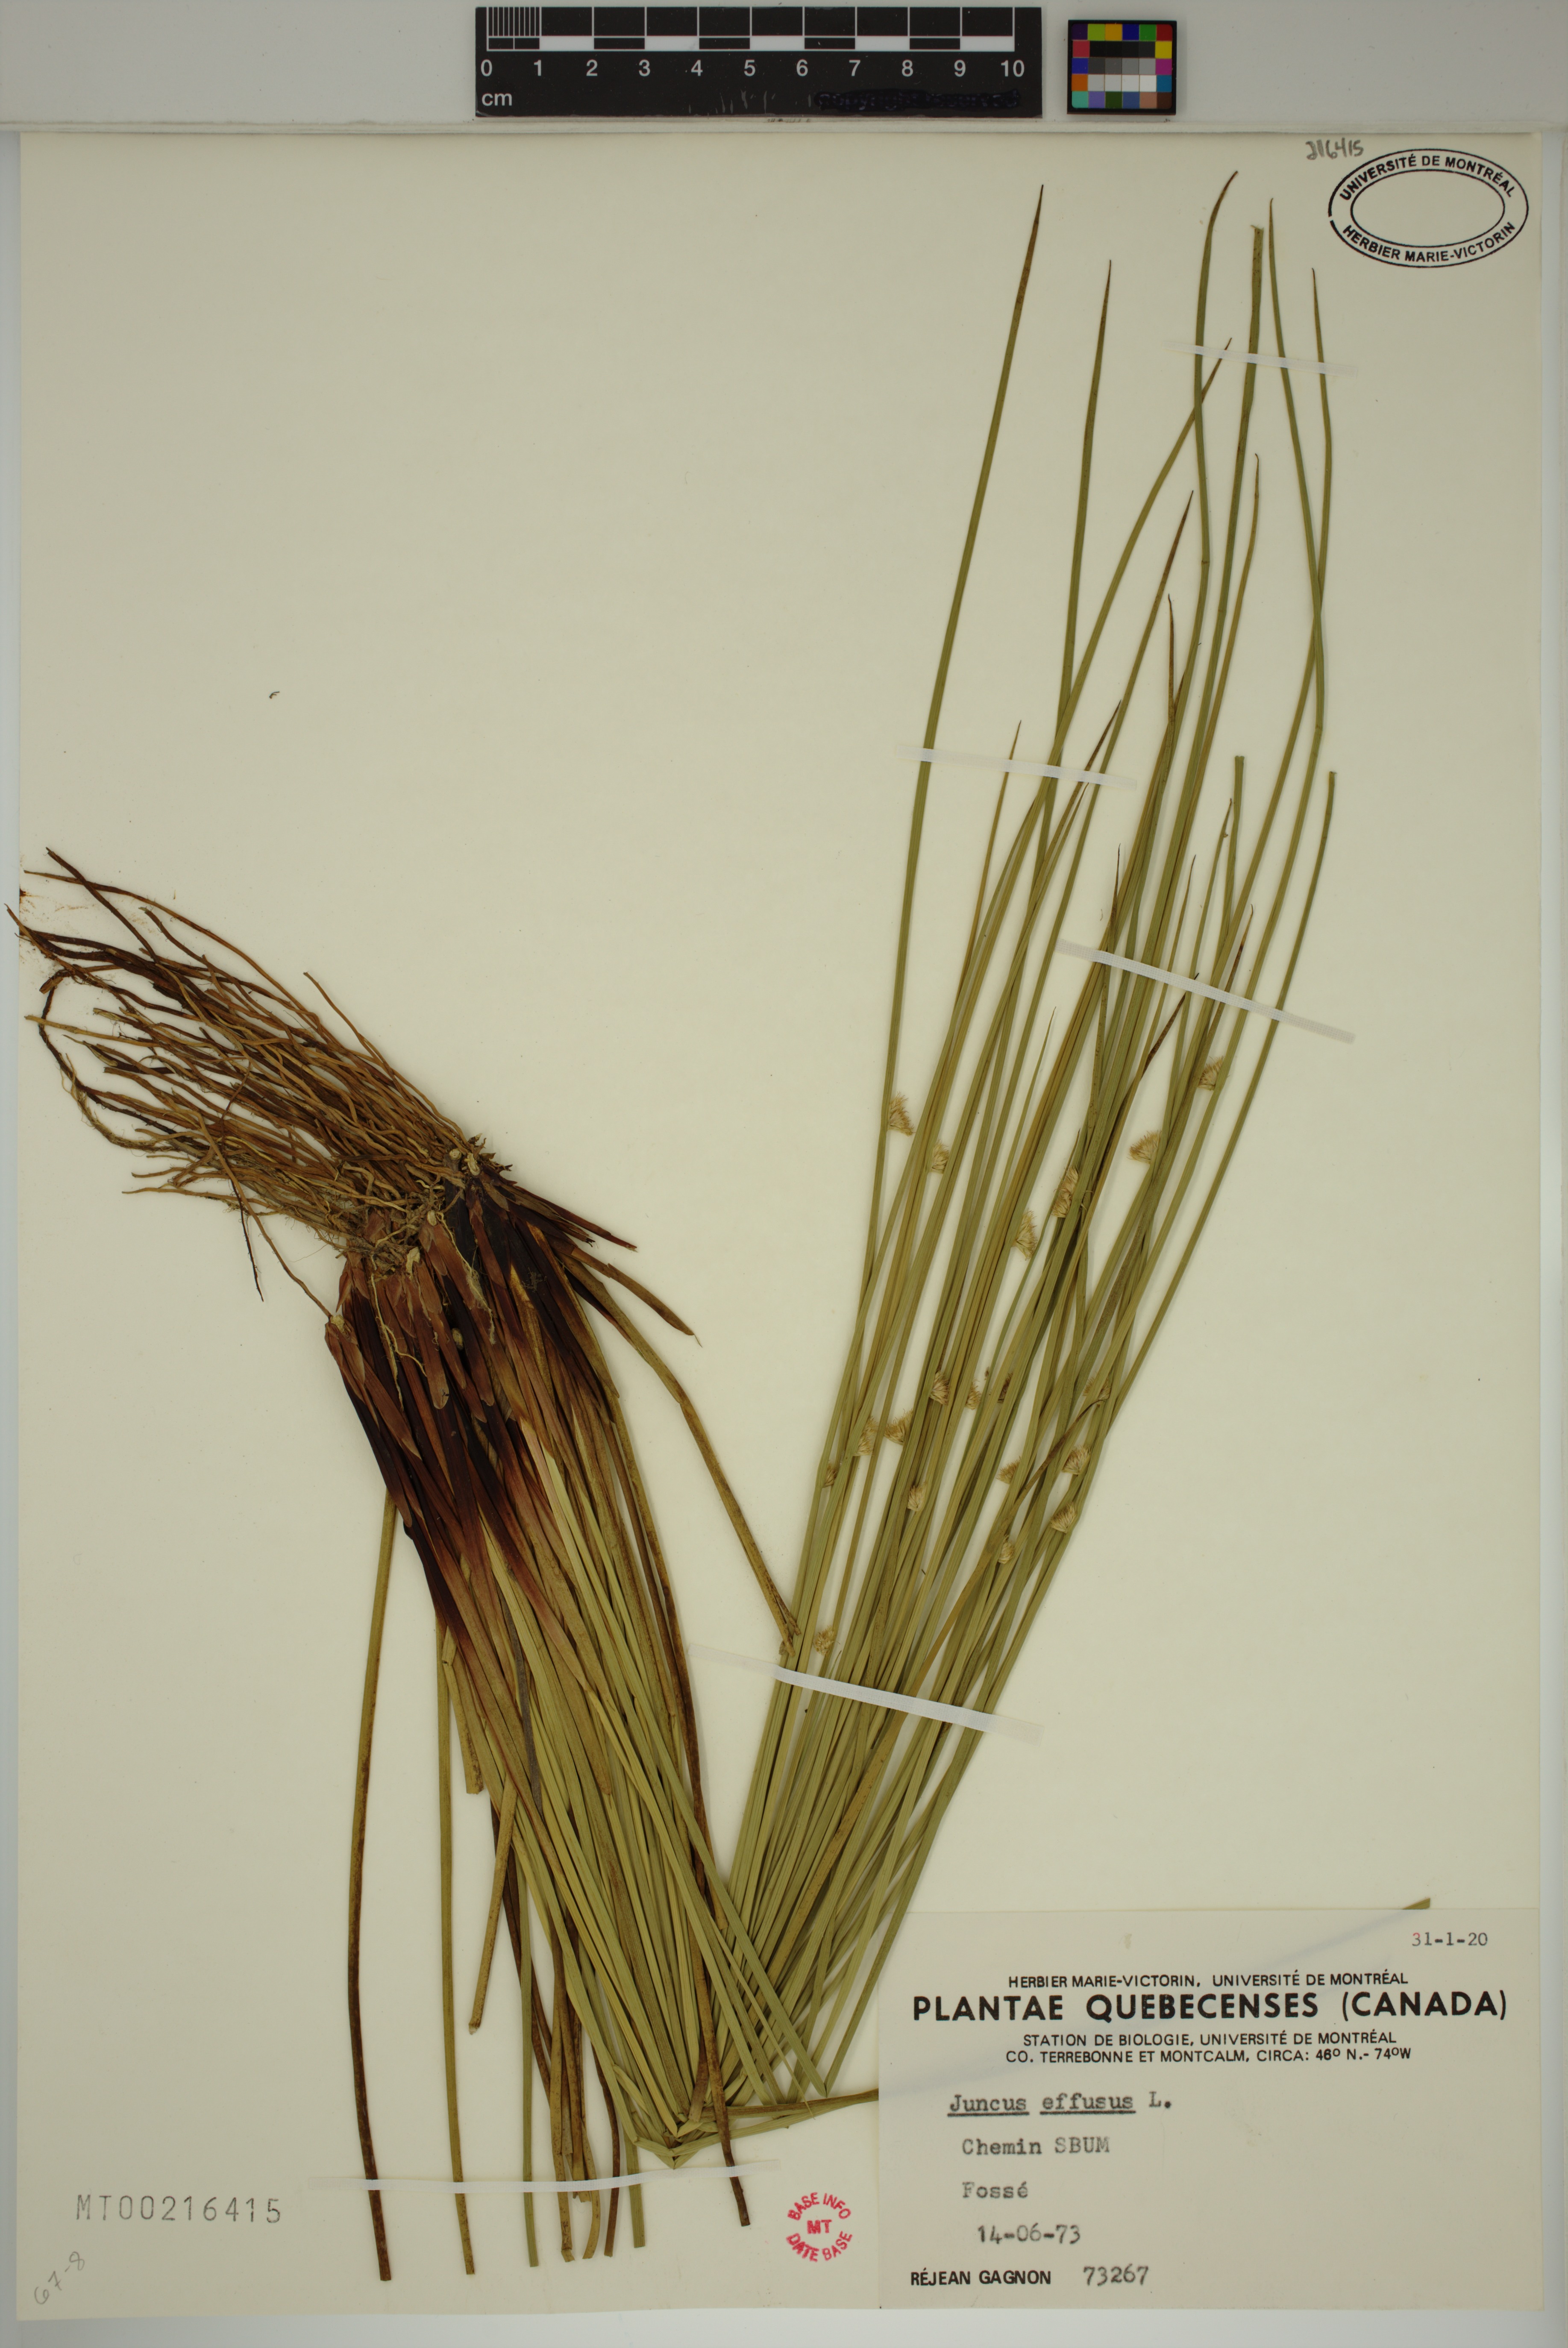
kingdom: Plantae
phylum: Tracheophyta
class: Liliopsida
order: Poales
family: Juncaceae
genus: Juncus
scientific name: Juncus effusus
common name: Soft rush
